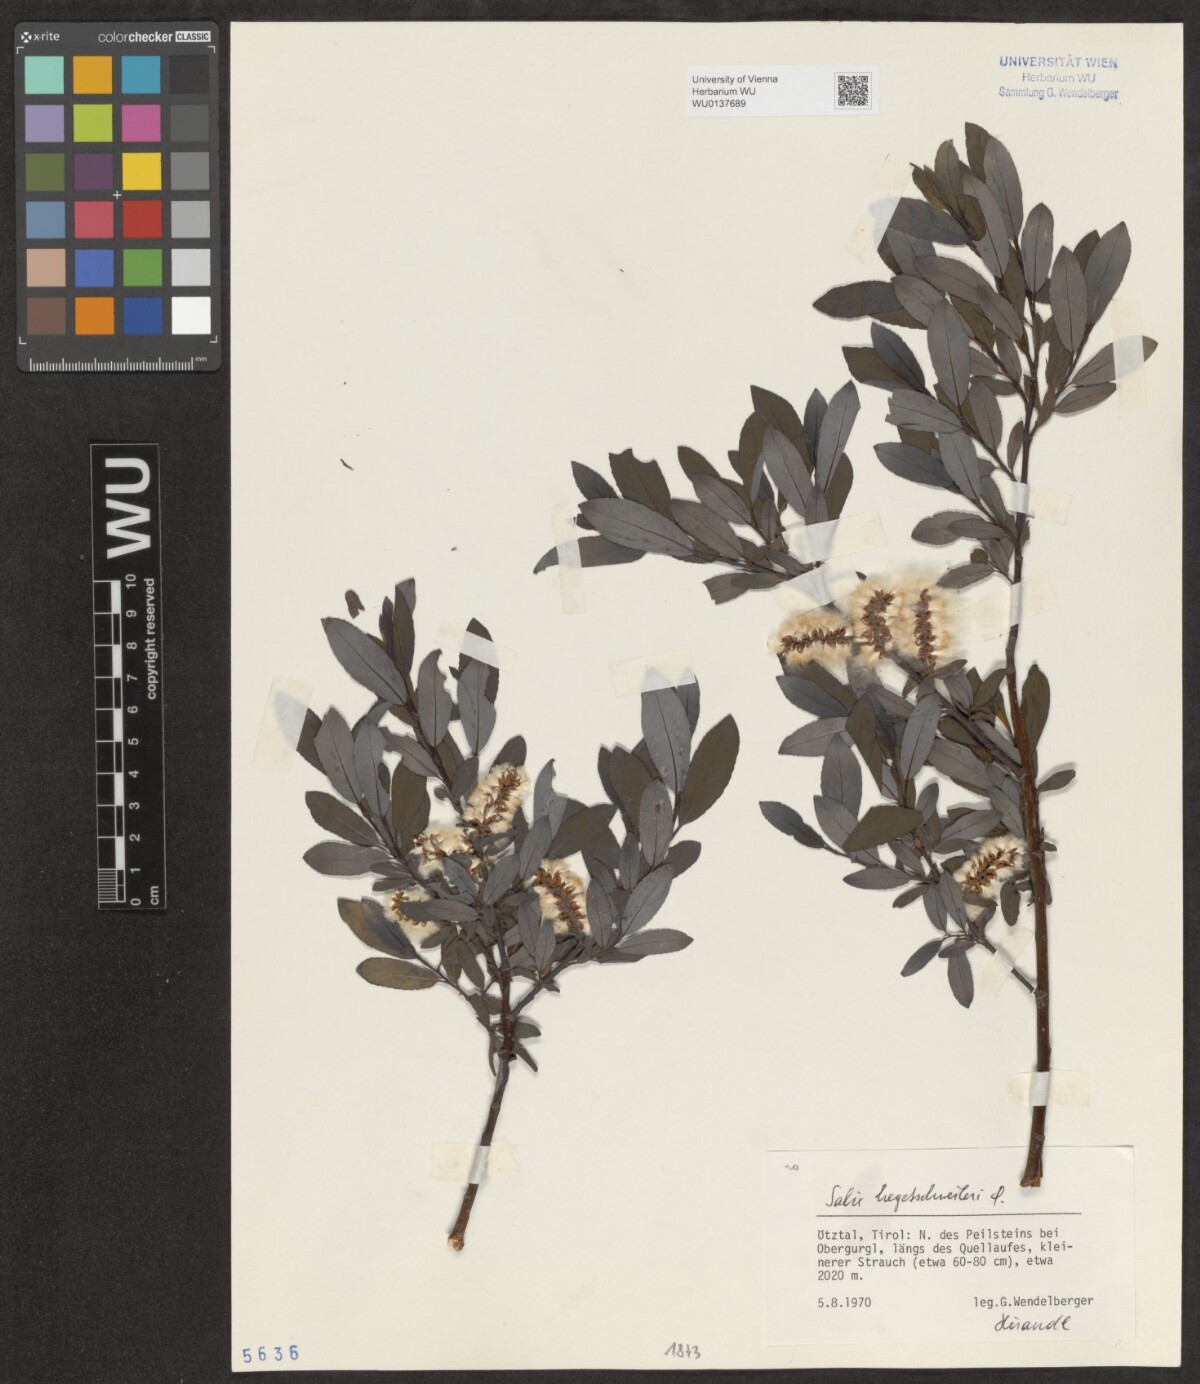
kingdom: Plantae
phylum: Tracheophyta
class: Magnoliopsida
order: Malpighiales
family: Salicaceae
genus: Salix
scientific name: Salix hegetschweileri
